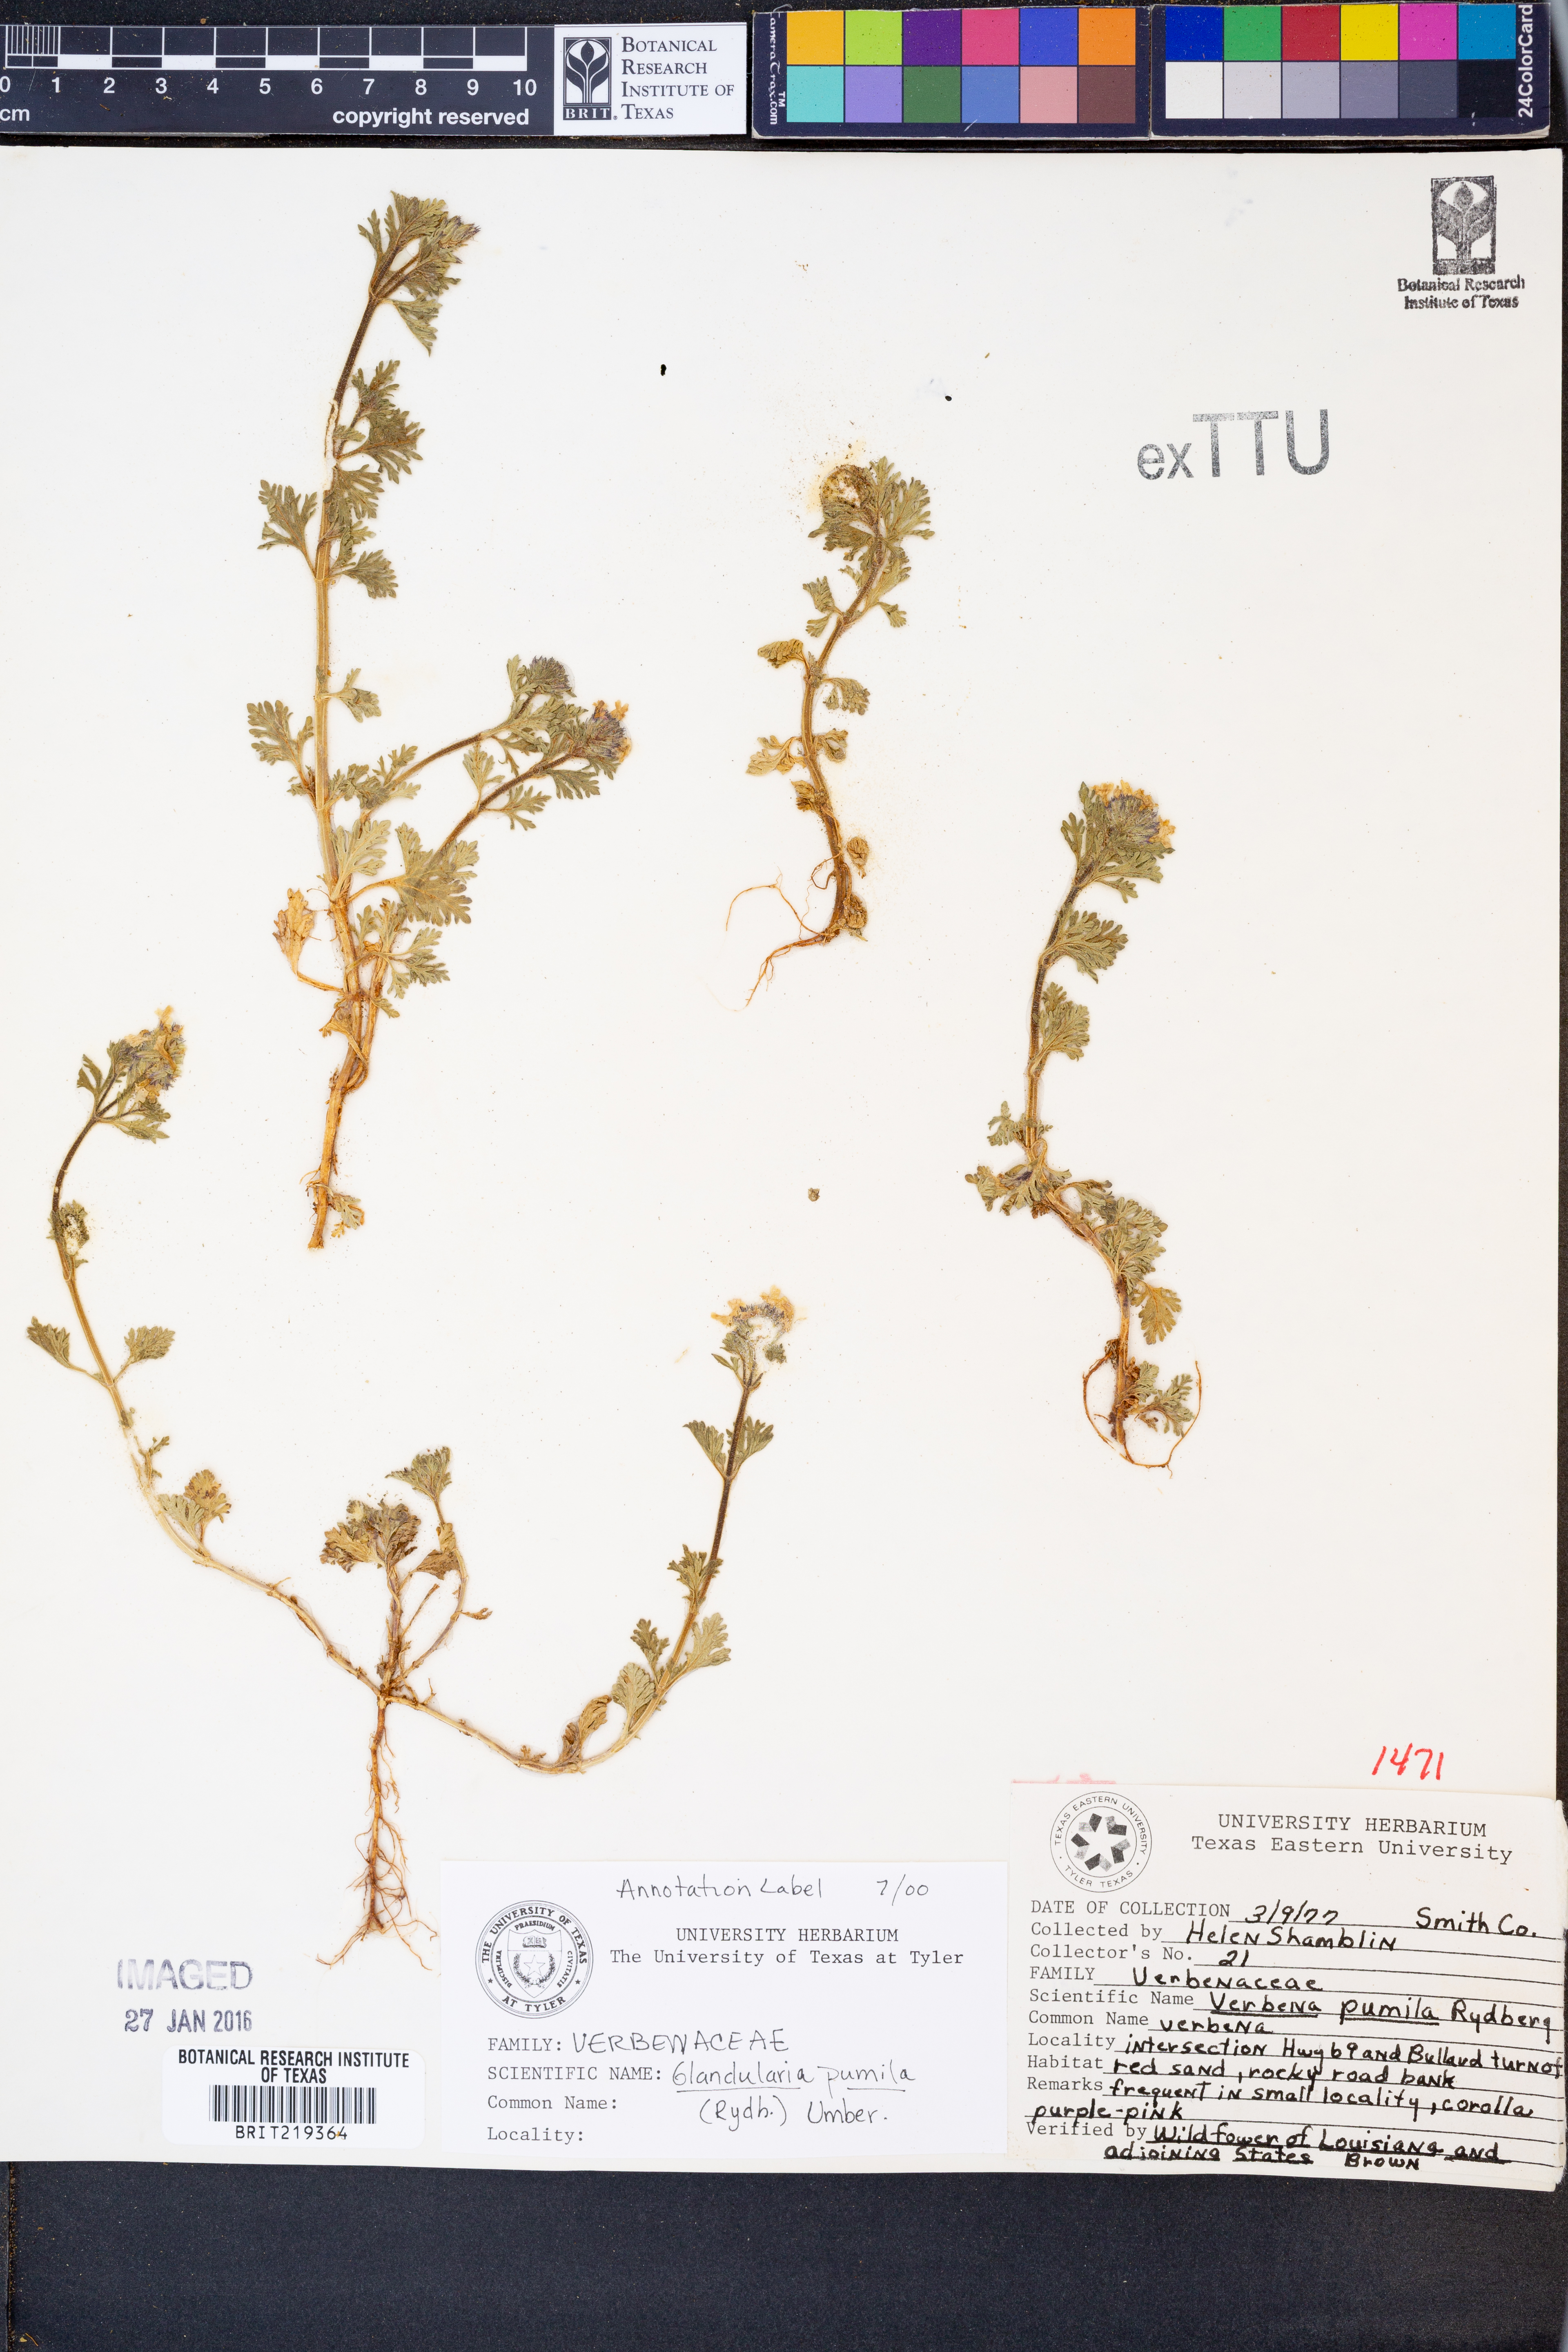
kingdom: Plantae
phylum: Tracheophyta
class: Magnoliopsida
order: Lamiales
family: Verbenaceae
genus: Verbena
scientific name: Verbena pumila
